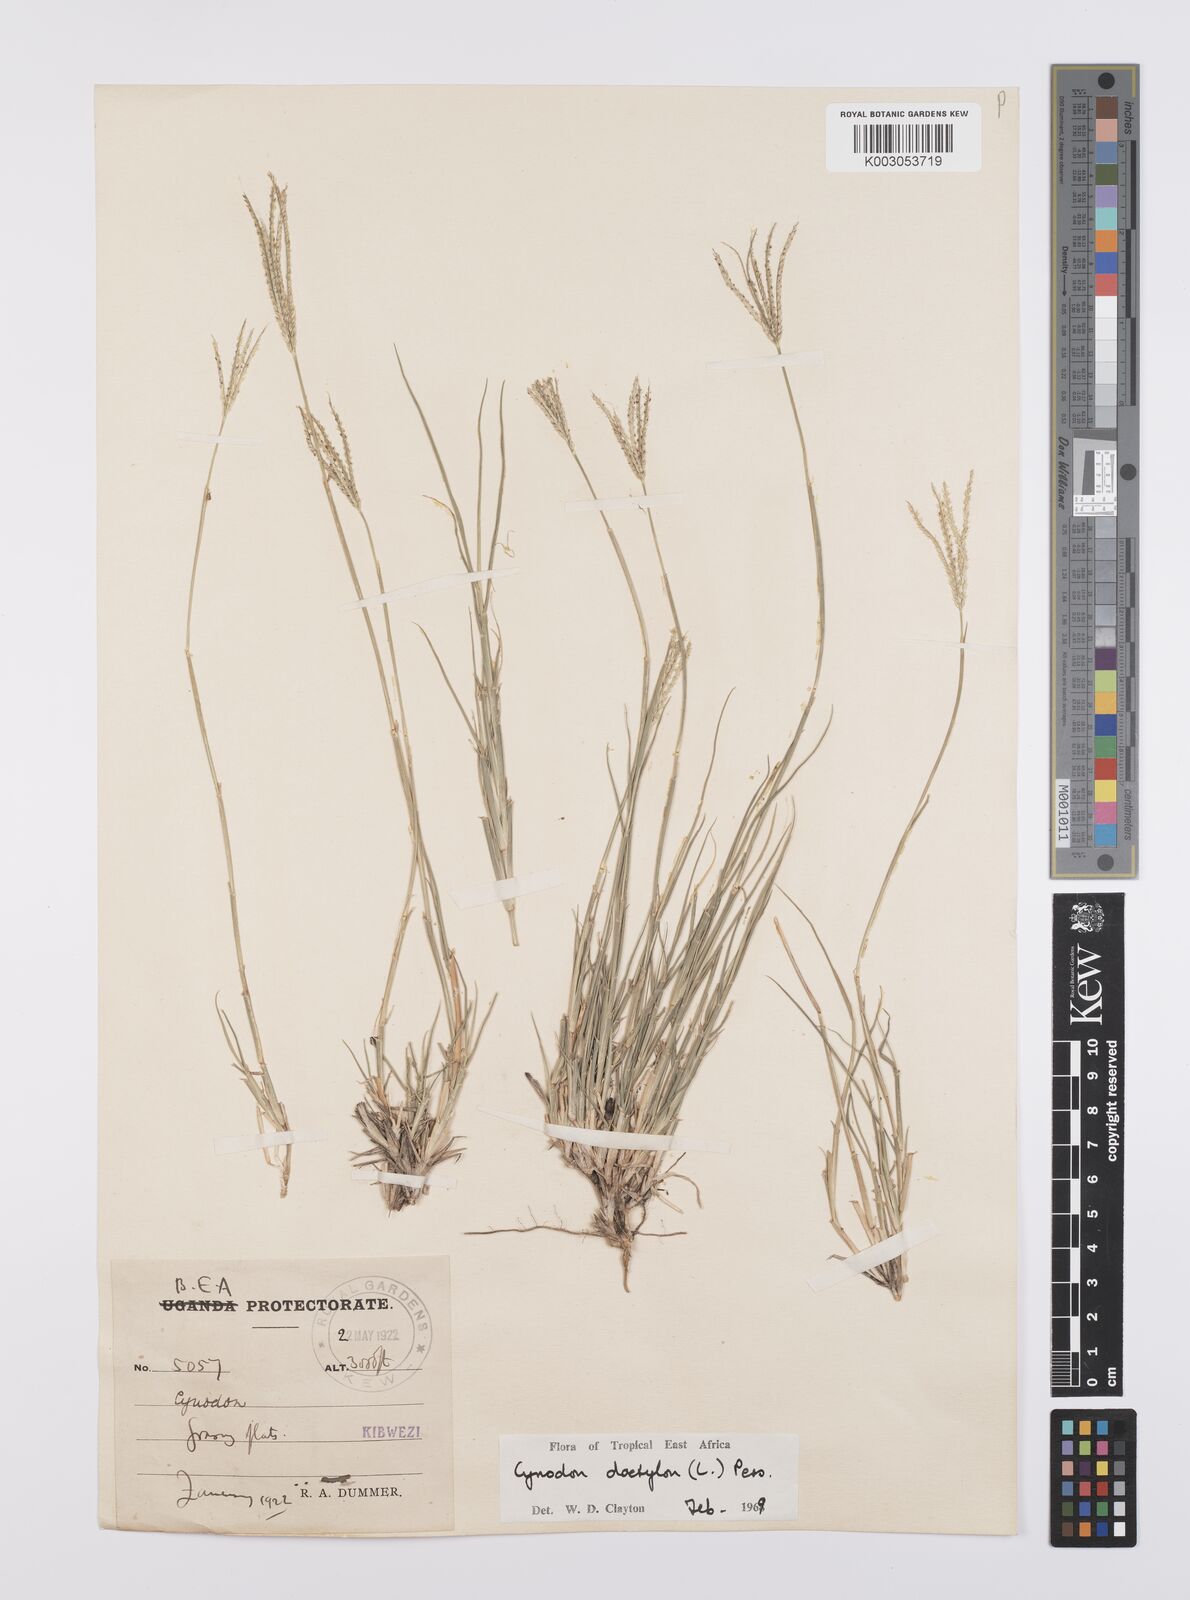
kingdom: Plantae
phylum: Tracheophyta
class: Liliopsida
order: Poales
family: Poaceae
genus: Cynodon
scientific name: Cynodon dactylon
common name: Bermuda grass
